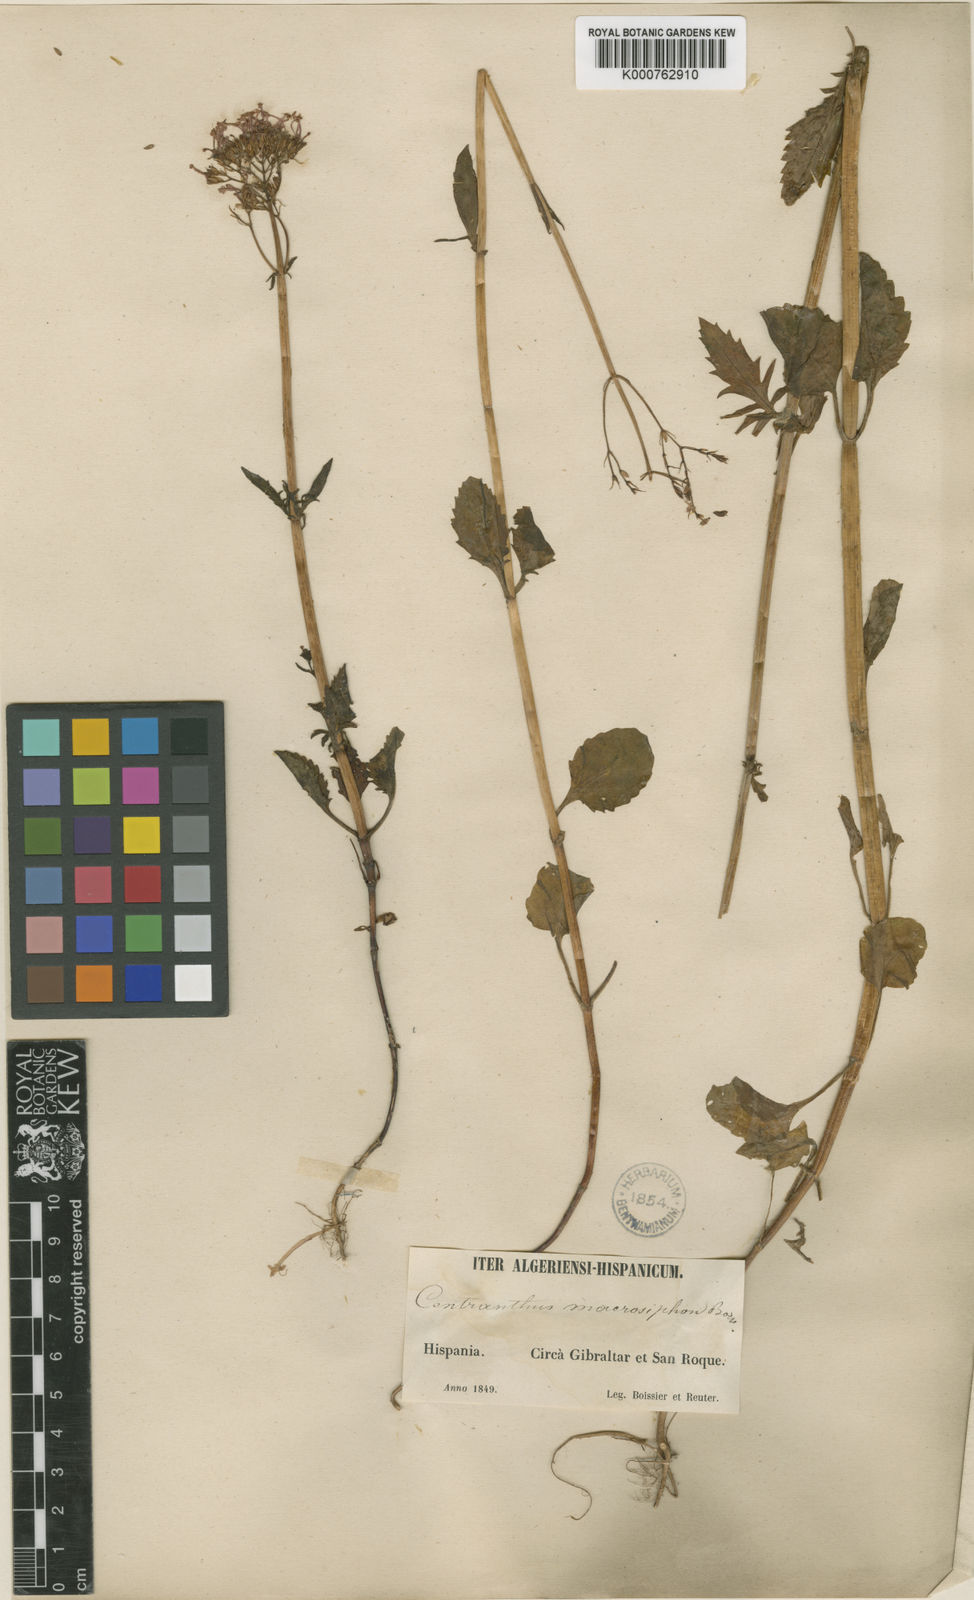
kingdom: Plantae
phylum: Tracheophyta
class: Magnoliopsida
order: Dipsacales
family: Caprifoliaceae
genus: Centranthus
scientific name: Centranthus macrosiphon
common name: Spanish-valerian
